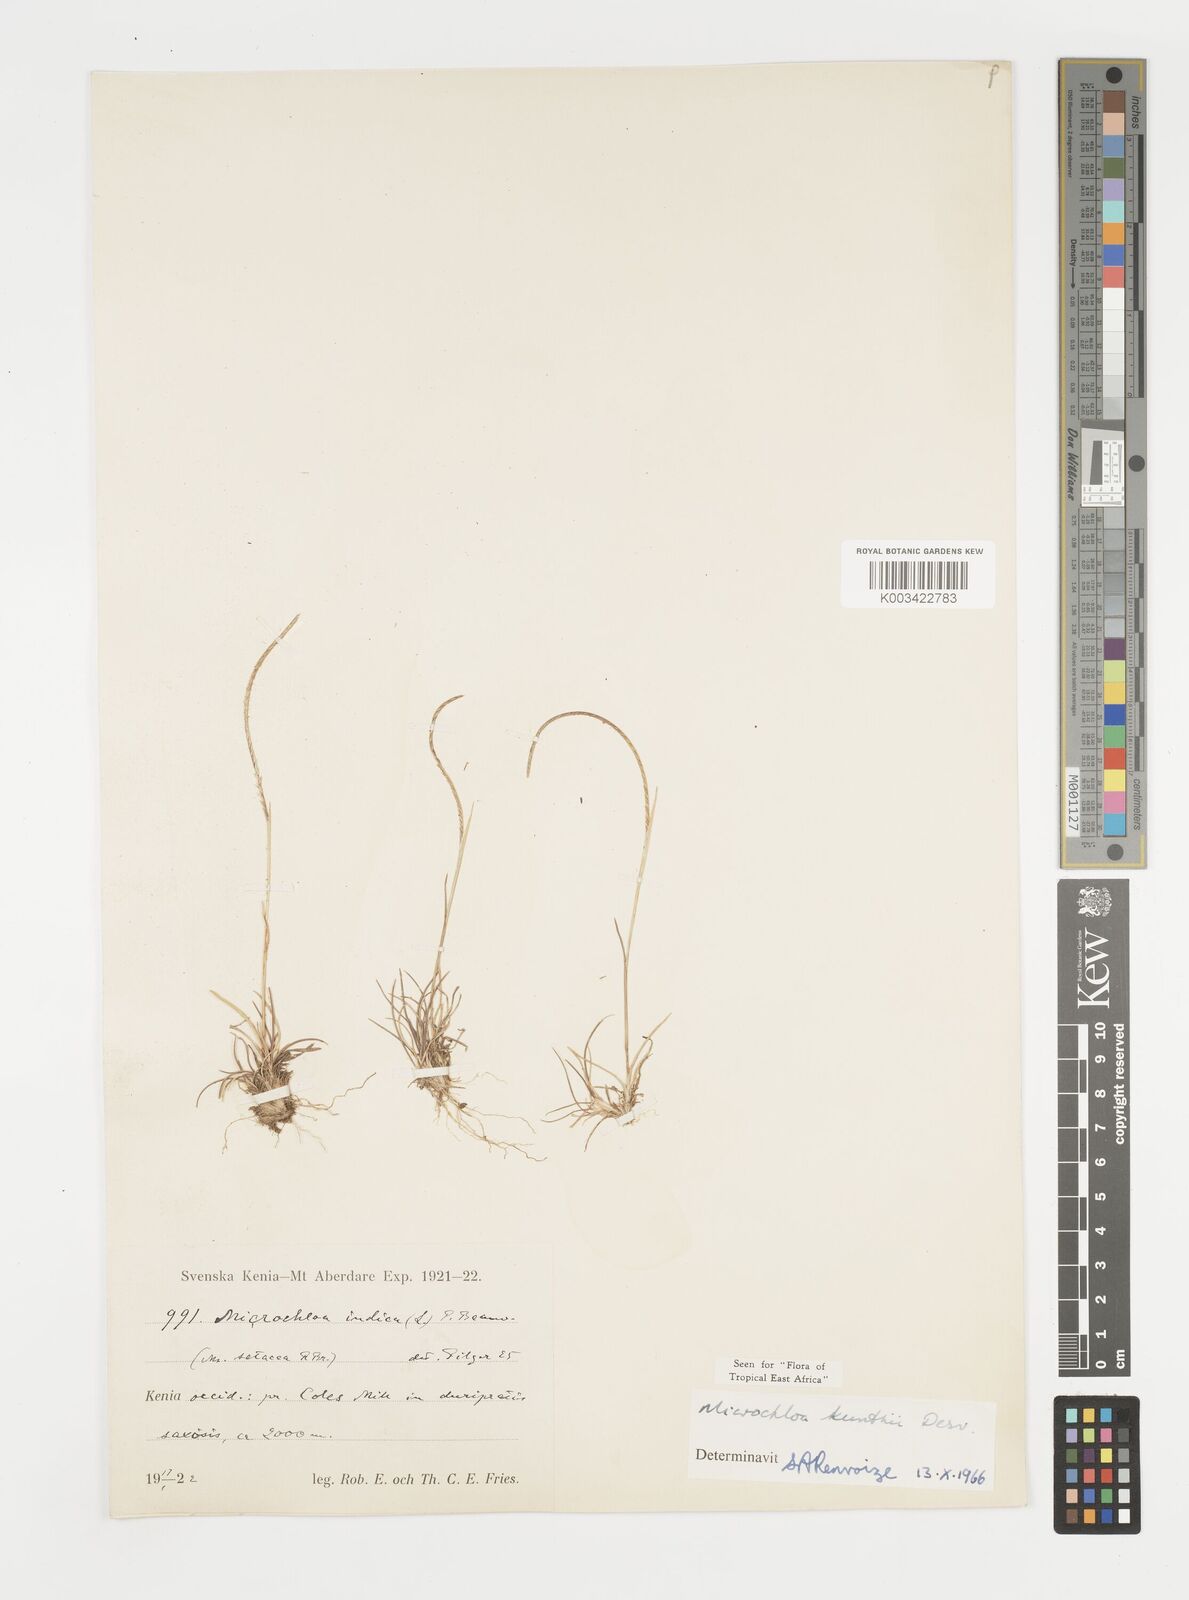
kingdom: Plantae
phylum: Tracheophyta
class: Liliopsida
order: Poales
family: Poaceae
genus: Microchloa
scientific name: Microchloa kunthii
